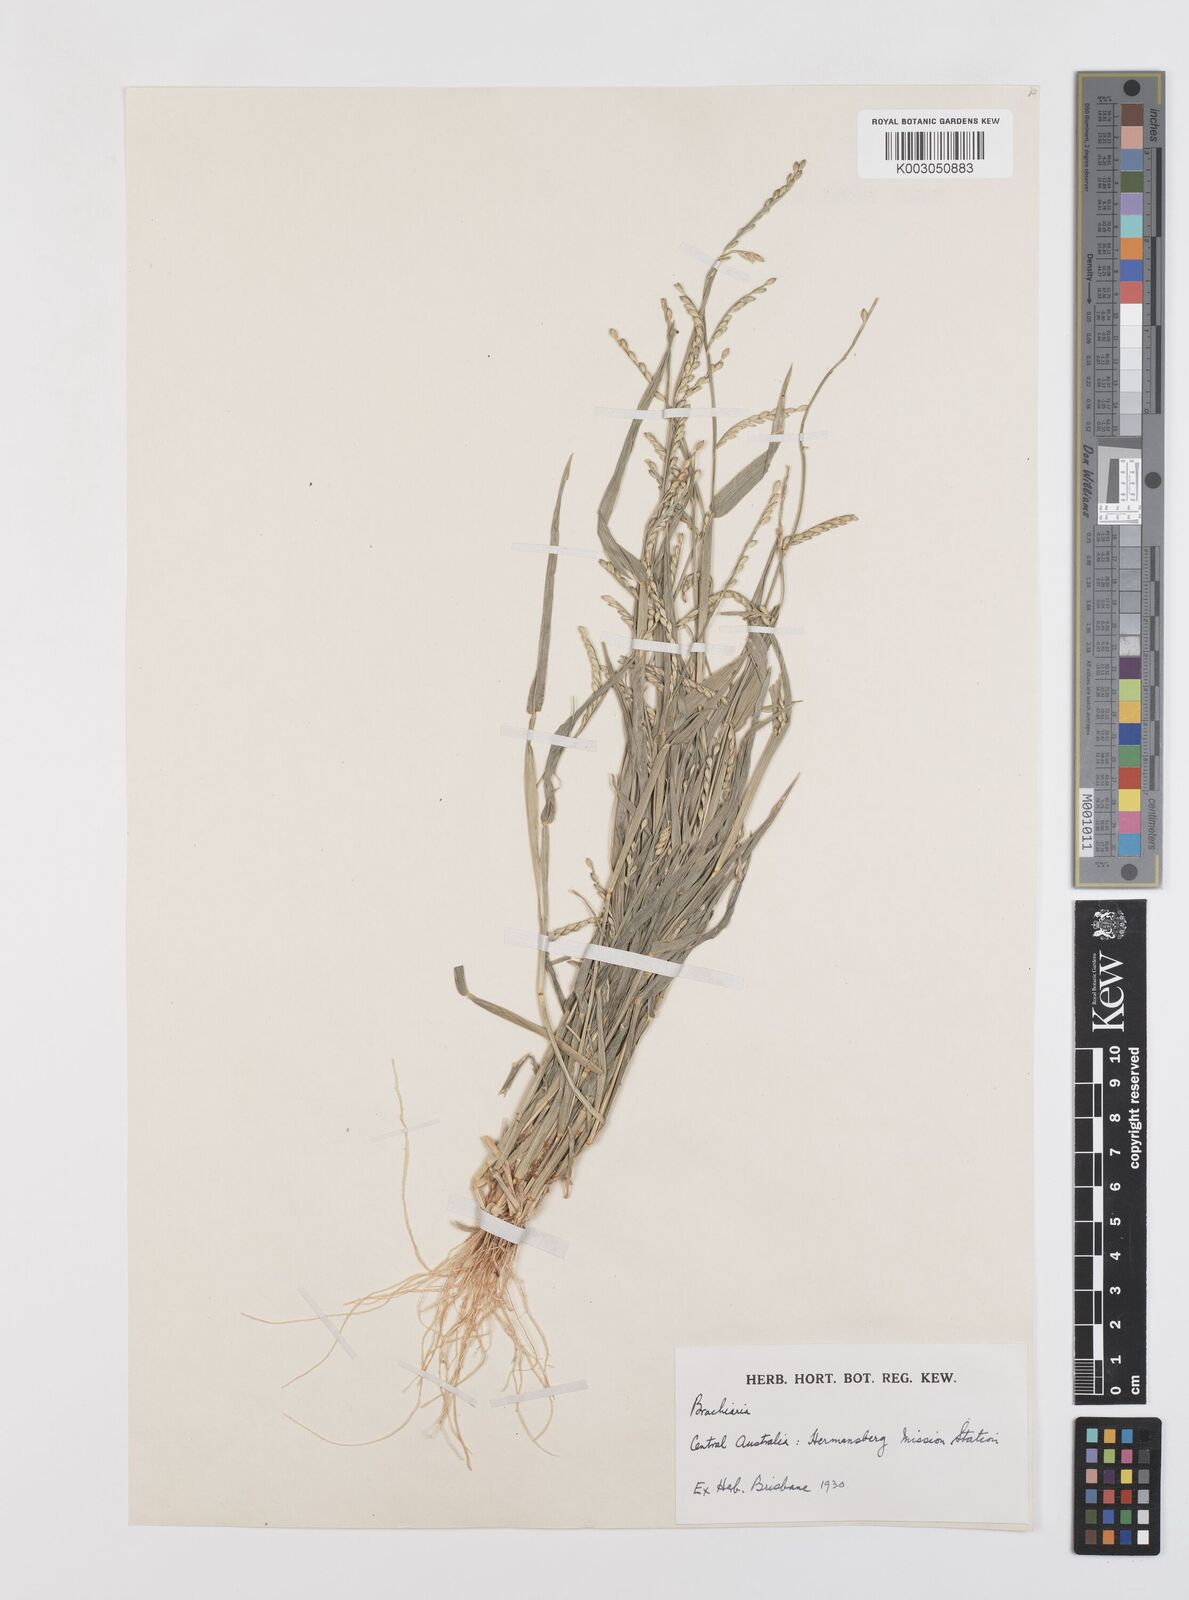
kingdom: Plantae
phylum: Tracheophyta
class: Liliopsida
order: Poales
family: Poaceae
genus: Urochloa
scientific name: Urochloa subquadripara
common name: Armgrass millet
